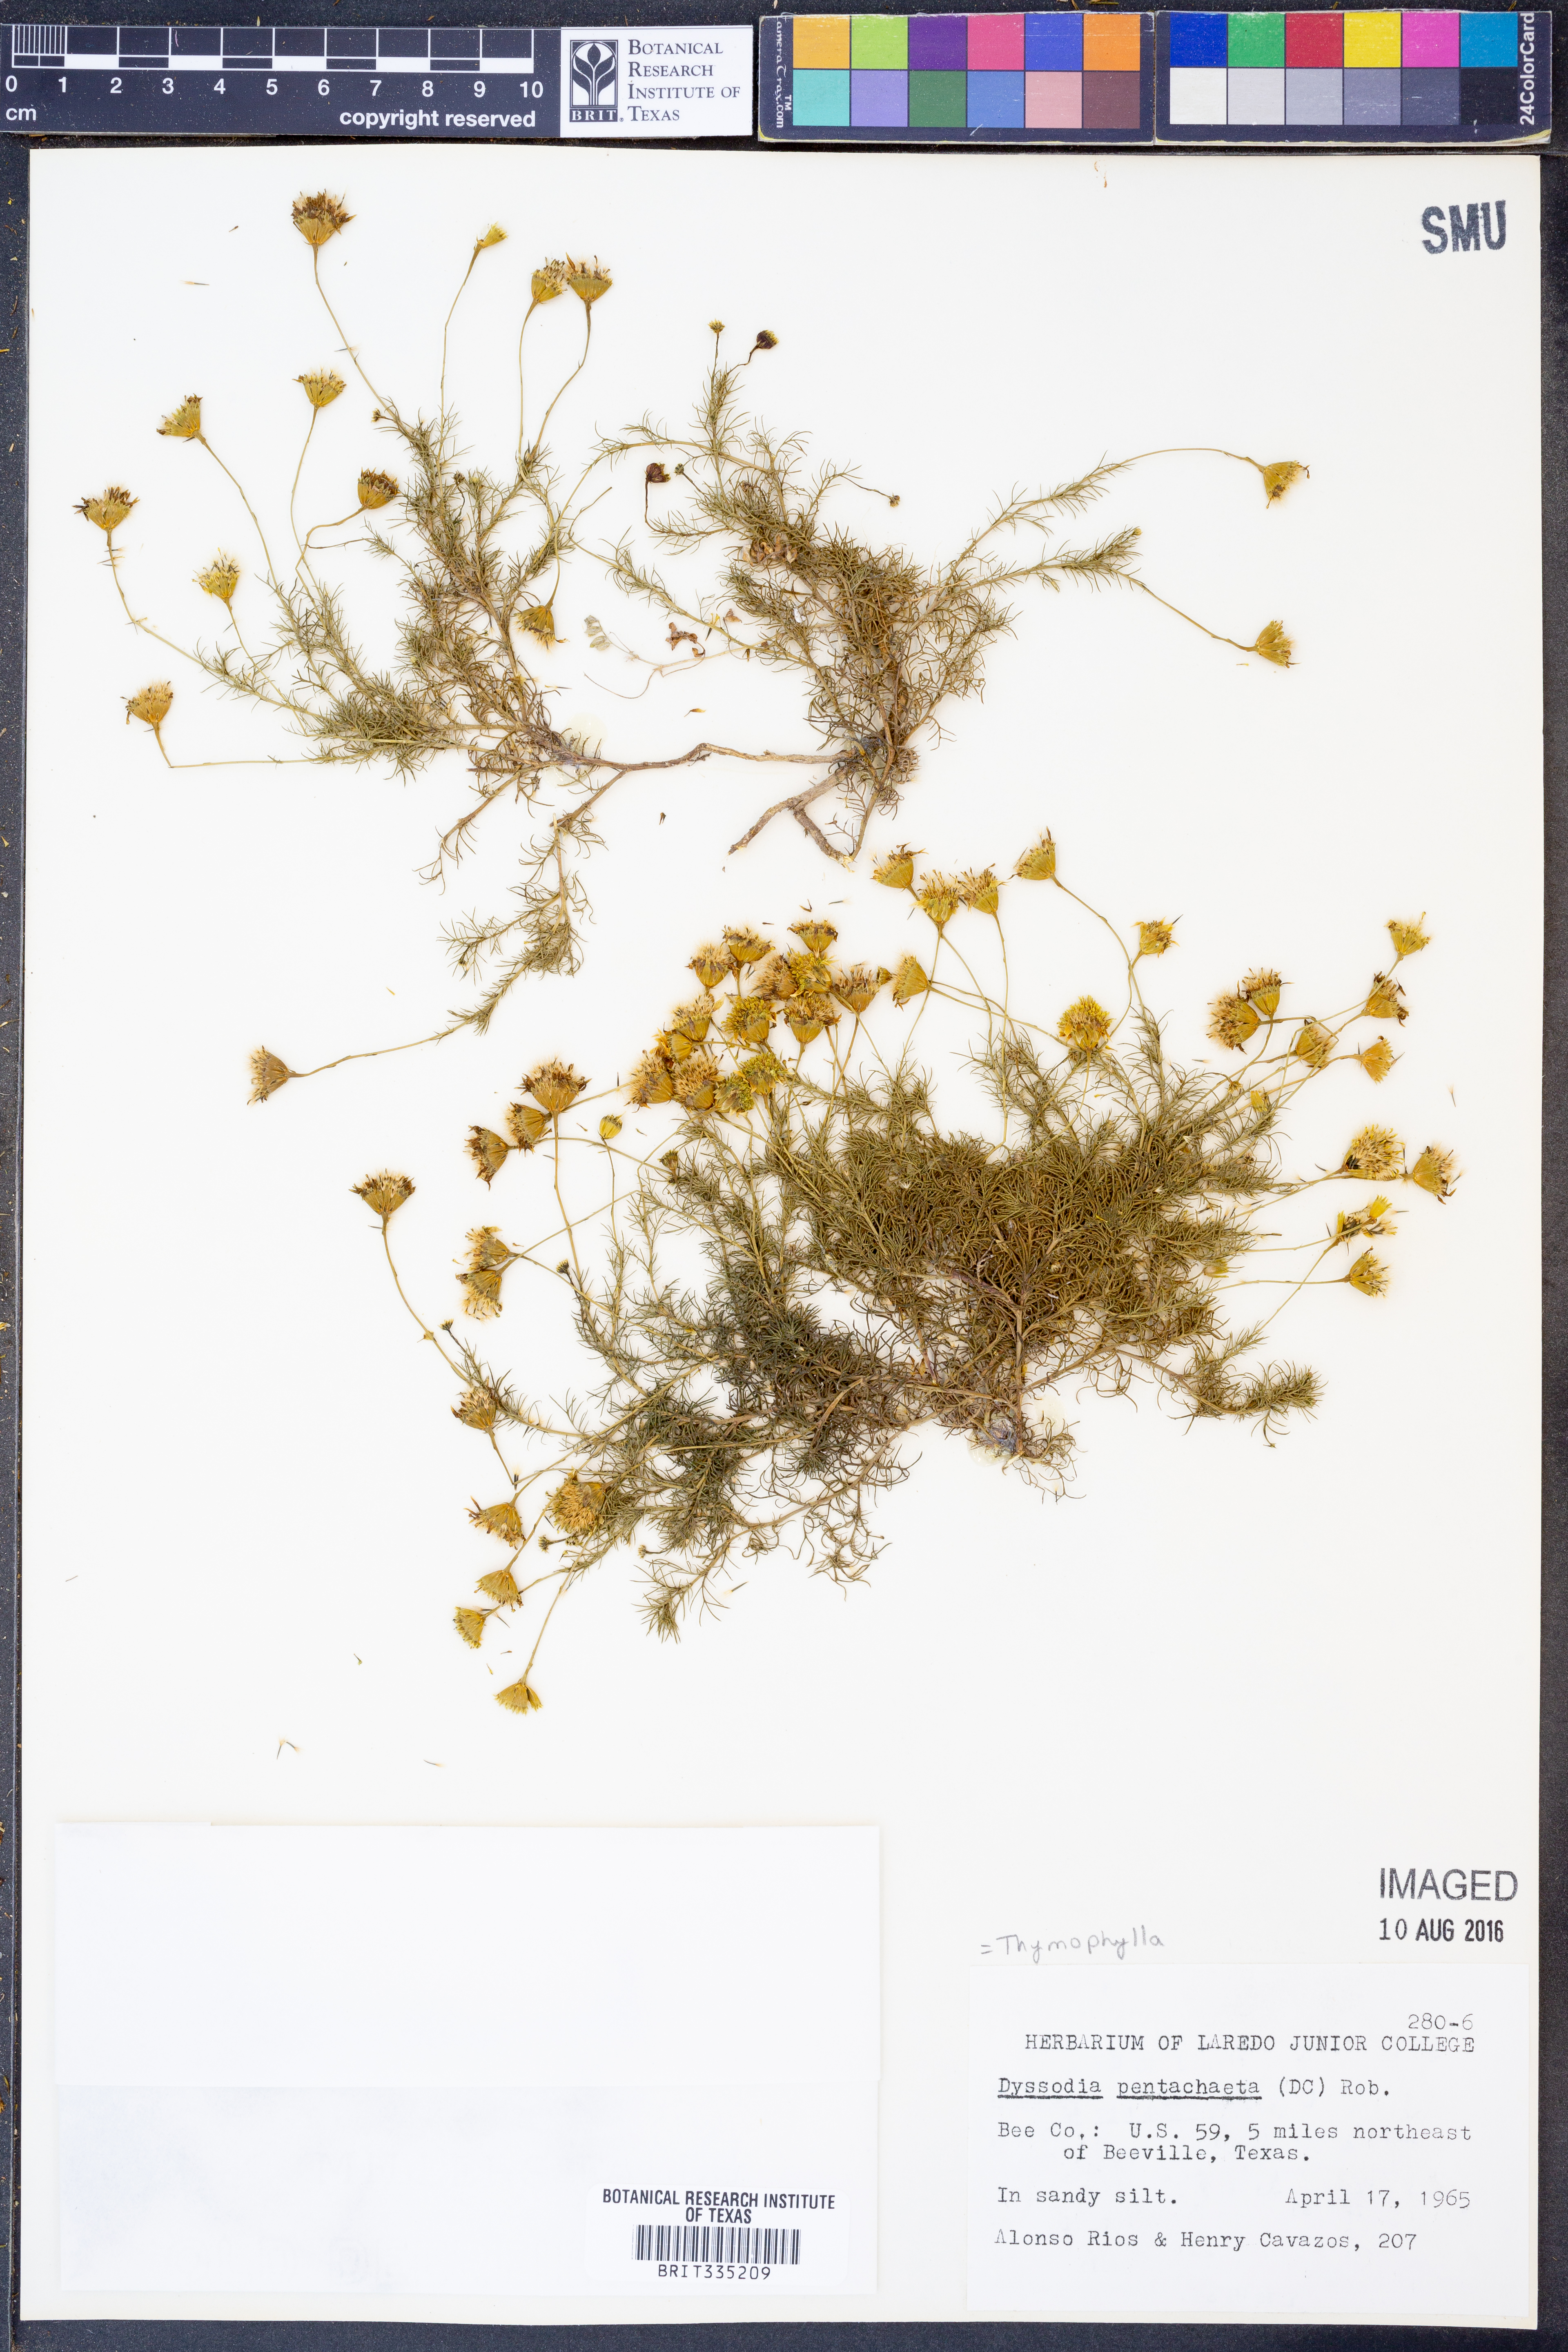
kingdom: Plantae
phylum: Tracheophyta
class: Magnoliopsida
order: Asterales
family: Asteraceae
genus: Thymophylla
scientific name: Thymophylla pentachaeta
